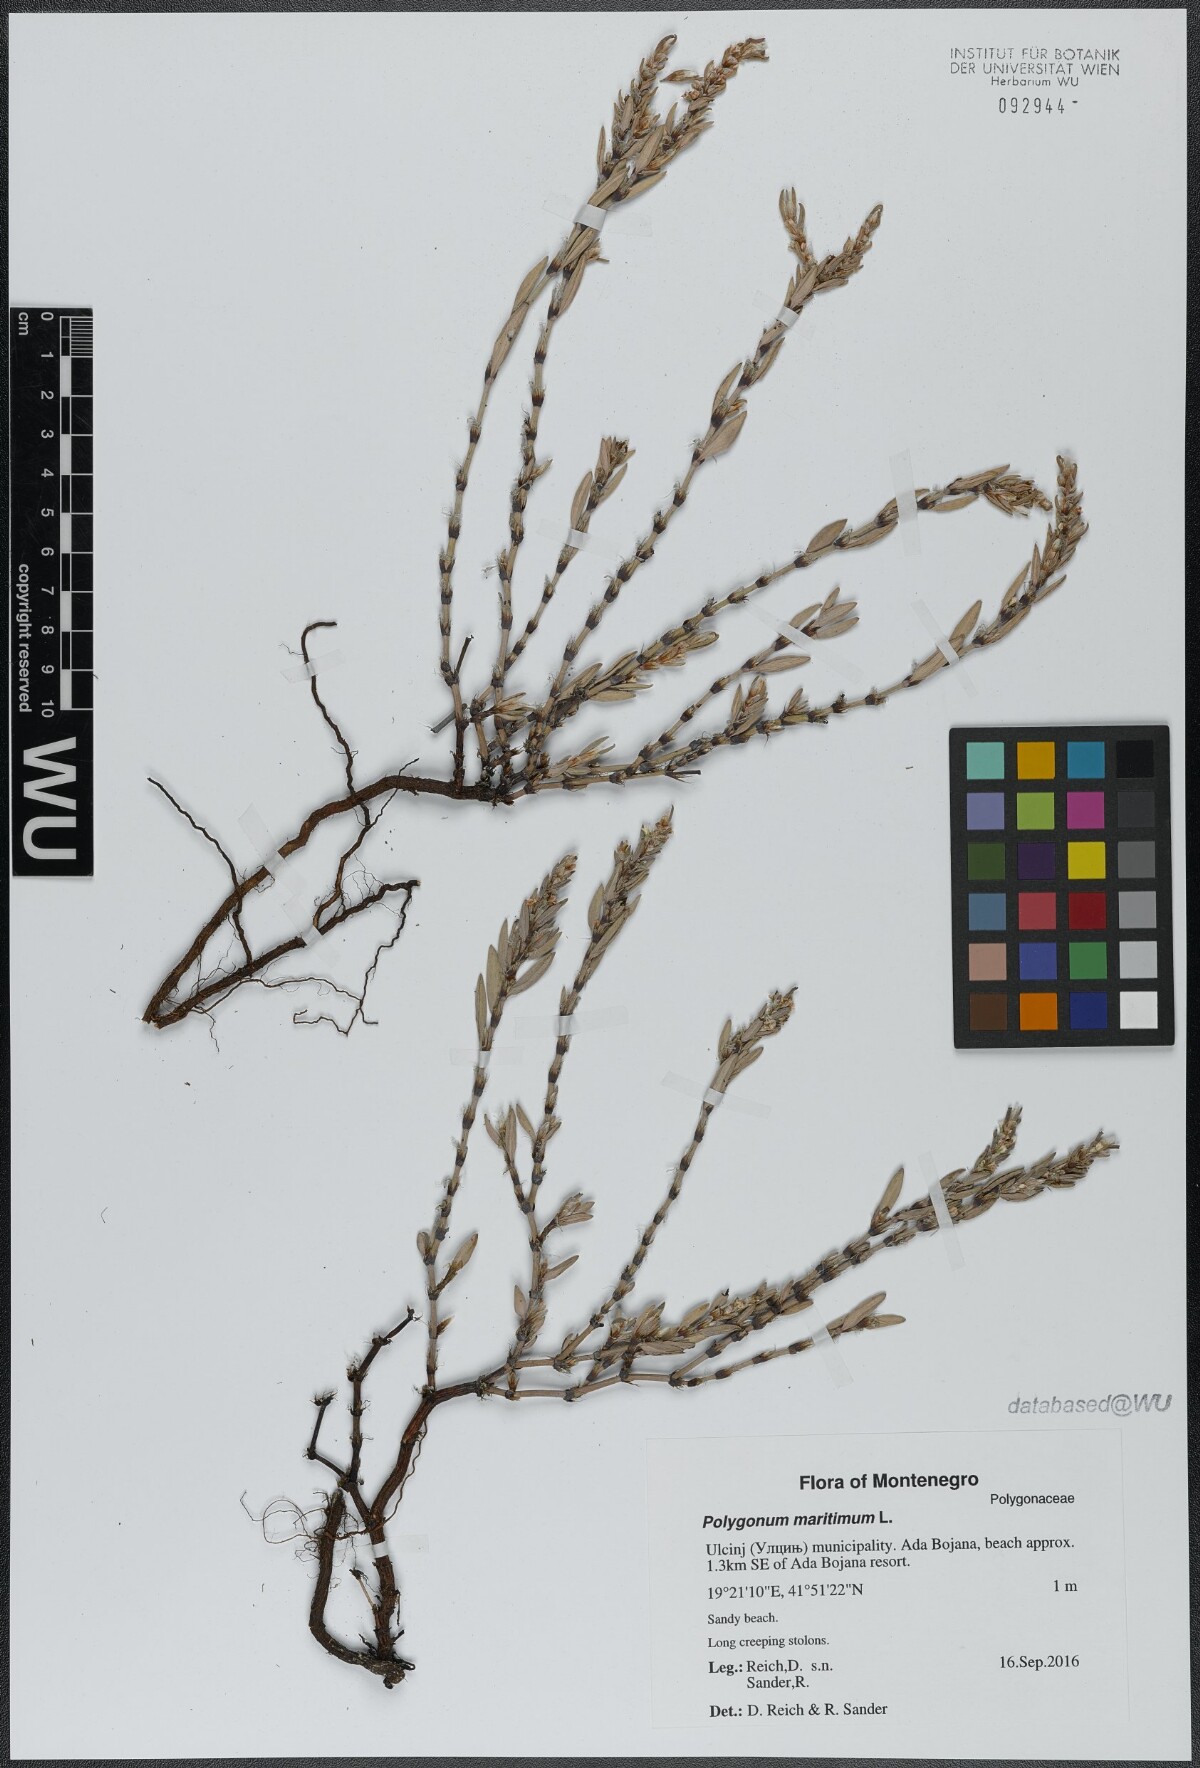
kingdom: Plantae
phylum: Tracheophyta
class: Magnoliopsida
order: Caryophyllales
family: Polygonaceae
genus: Polygonum
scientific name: Polygonum maritimum
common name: Sea knotgrass
